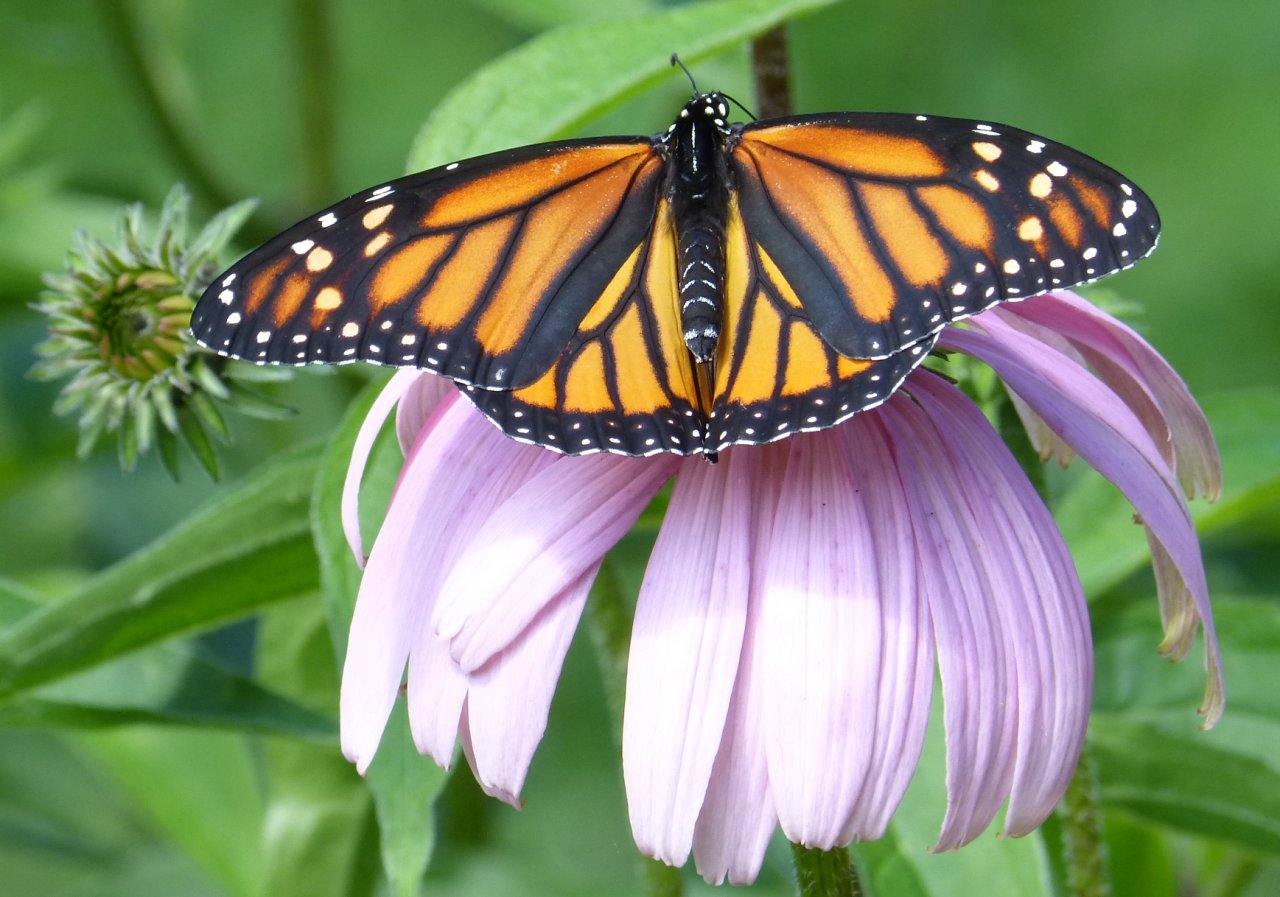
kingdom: Animalia
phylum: Arthropoda
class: Insecta
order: Lepidoptera
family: Nymphalidae
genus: Danaus
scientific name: Danaus plexippus
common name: Monarch
